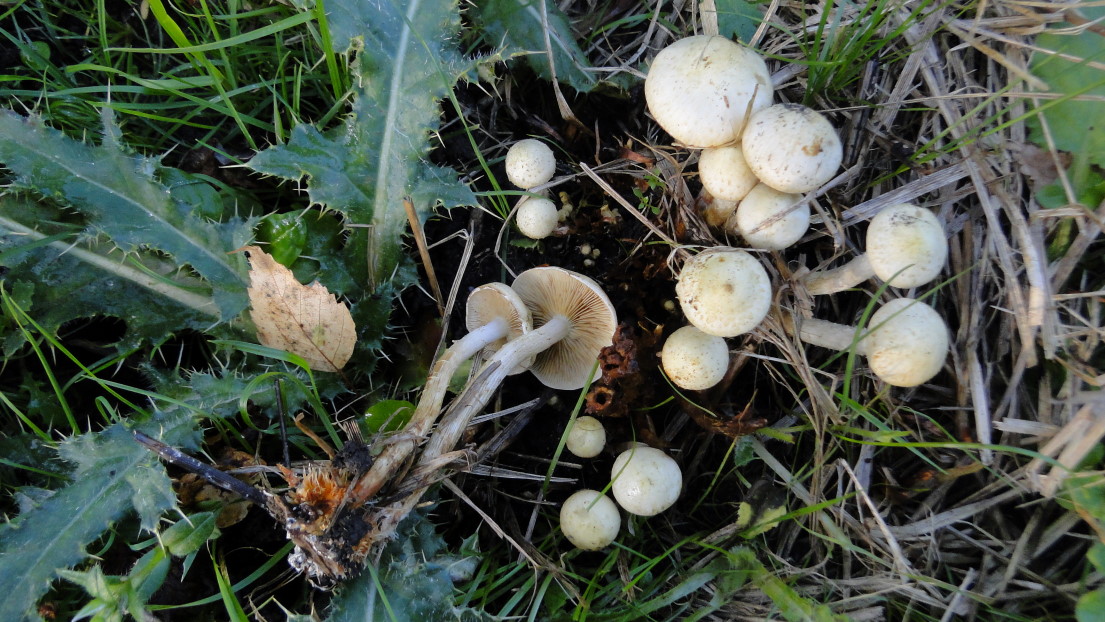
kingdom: Fungi
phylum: Basidiomycota
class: Agaricomycetes
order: Agaricales
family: Strophariaceae
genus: Pholiota
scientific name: Pholiota gummosa
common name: grøngul skælhat
